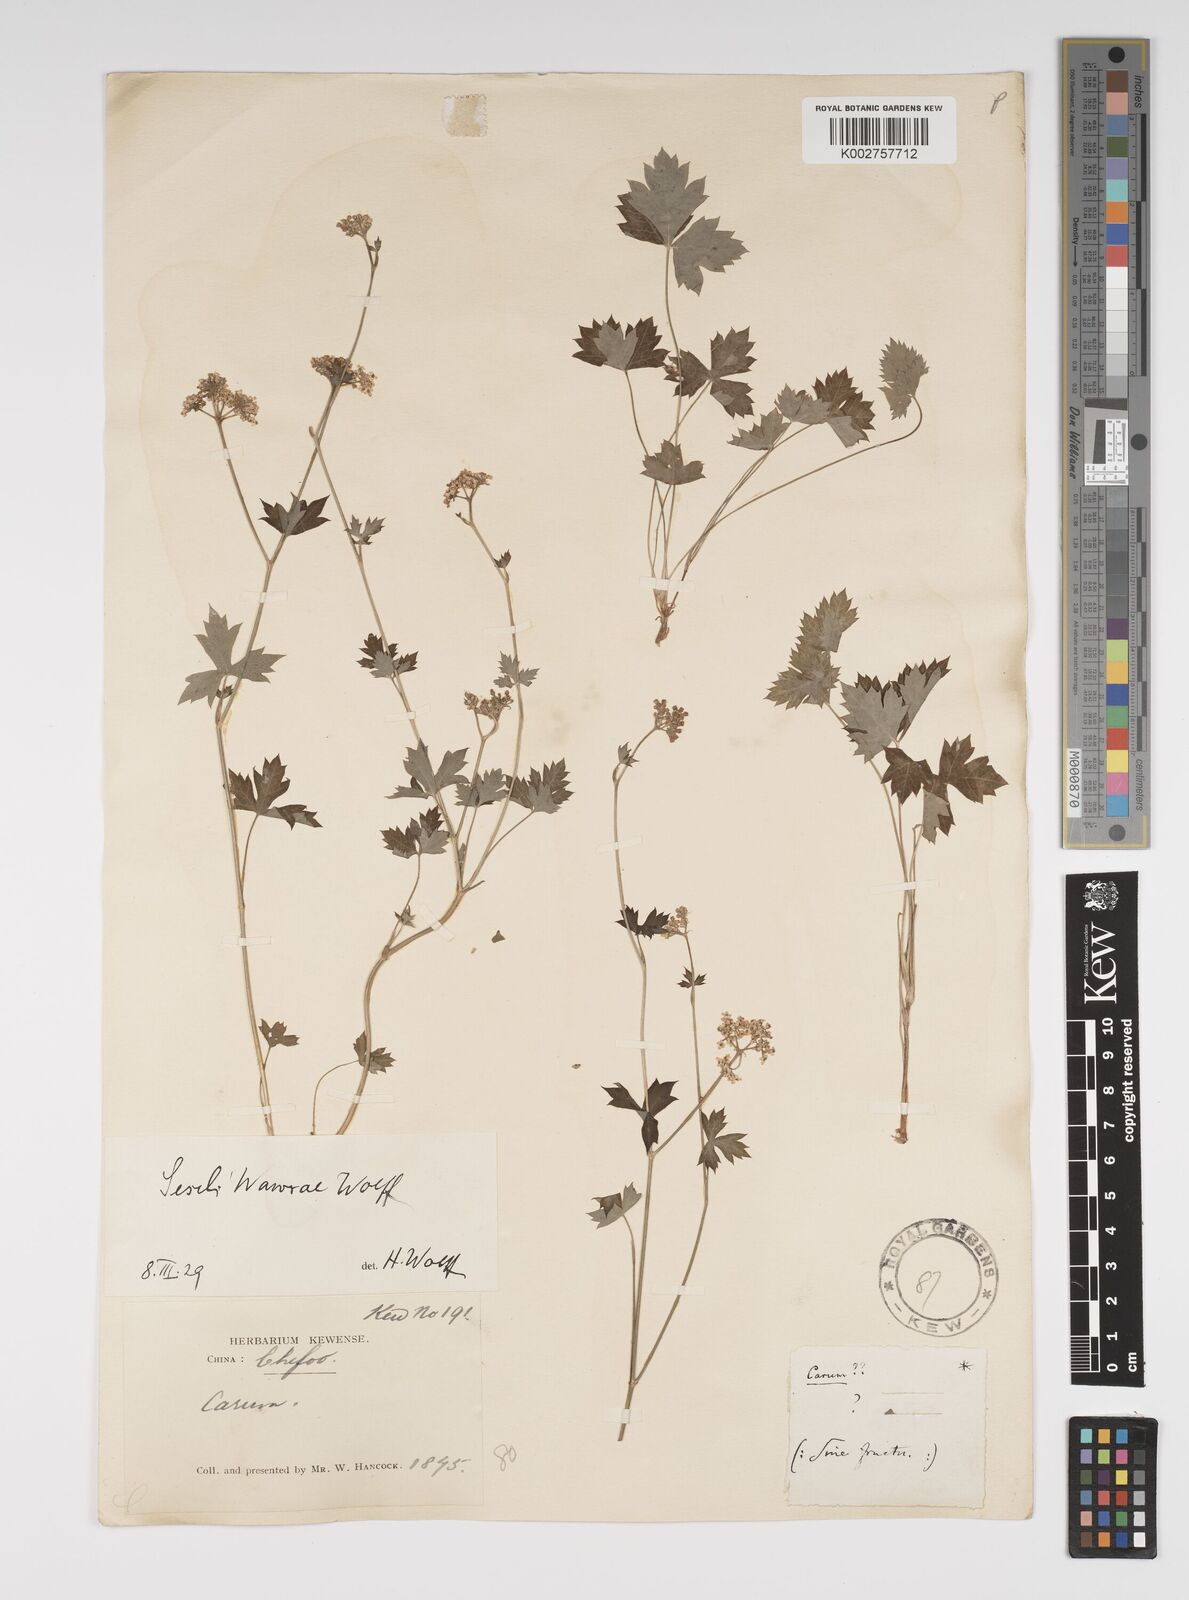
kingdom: Plantae
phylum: Tracheophyta
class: Magnoliopsida
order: Apiales
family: Apiaceae
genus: Seseli
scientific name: Seseli wawrae
